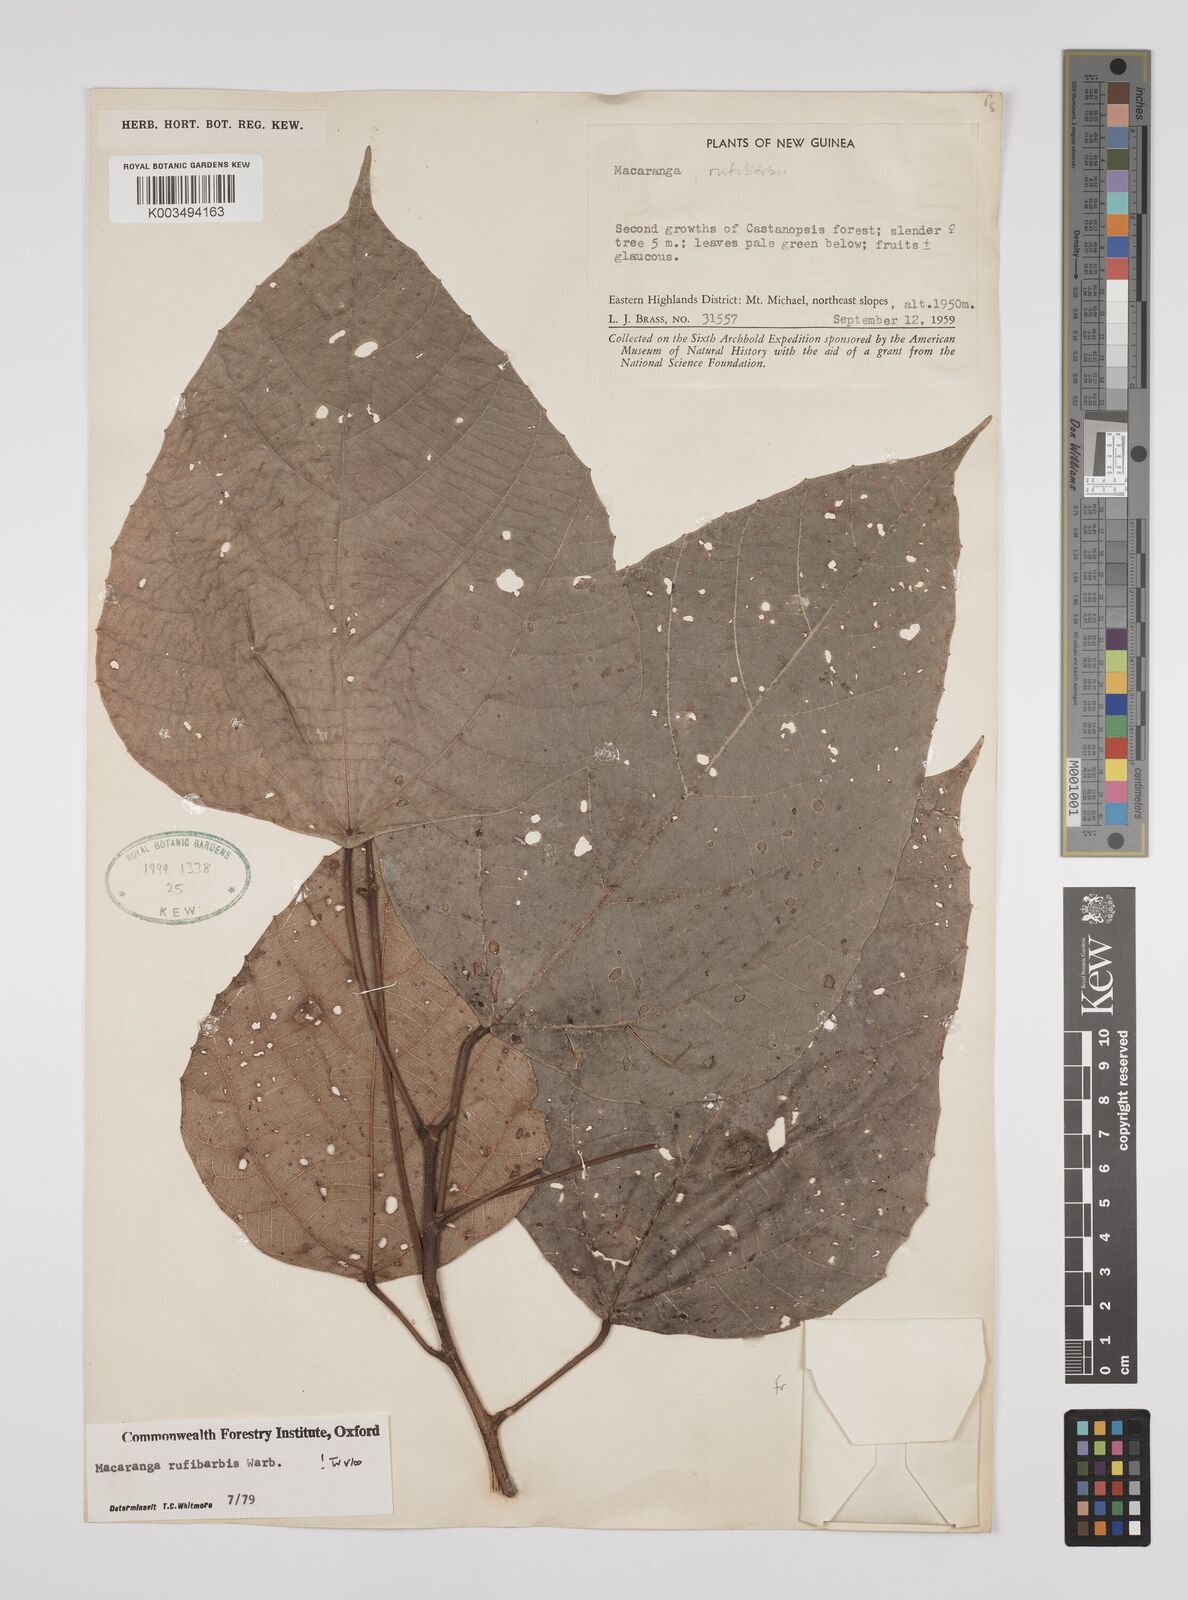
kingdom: Plantae
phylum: Tracheophyta
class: Magnoliopsida
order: Malpighiales
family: Euphorbiaceae
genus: Macaranga
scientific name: Macaranga rufibarbis
